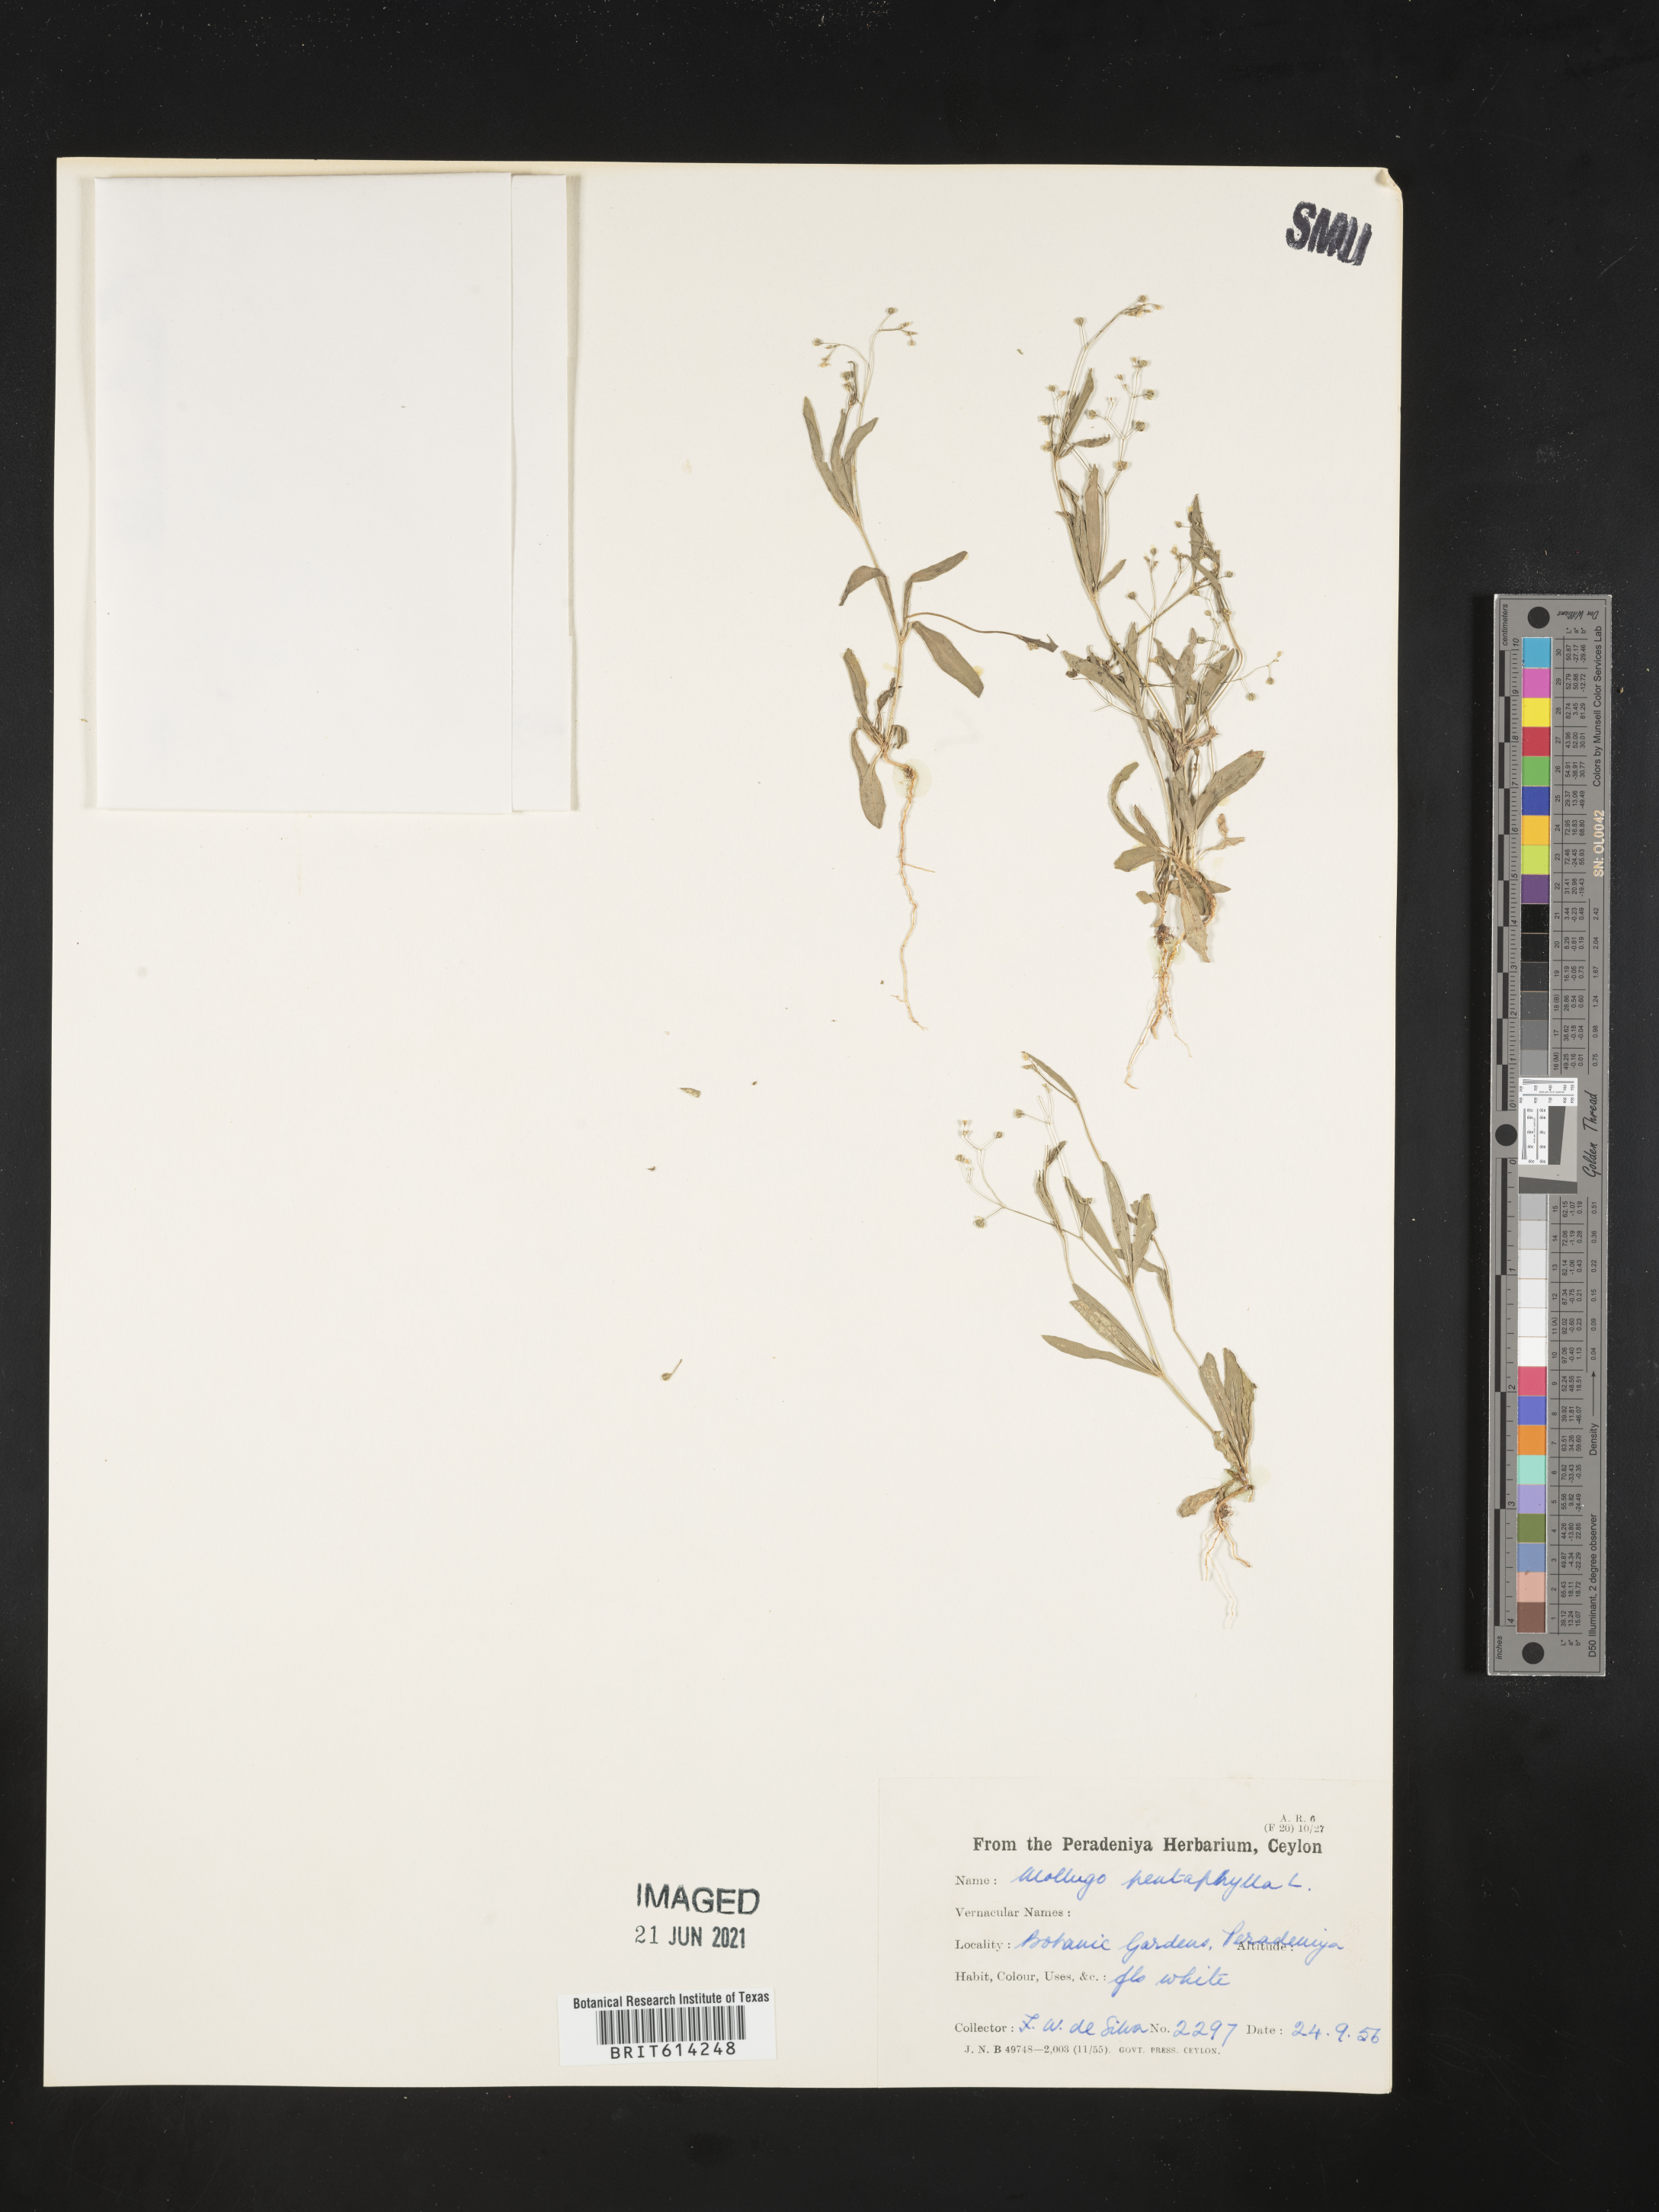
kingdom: Plantae
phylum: Tracheophyta
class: Magnoliopsida
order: Caryophyllales
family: Caryophyllaceae
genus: Polycarpon
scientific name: Polycarpon tetraphyllum
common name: Four-leaved all-seed
